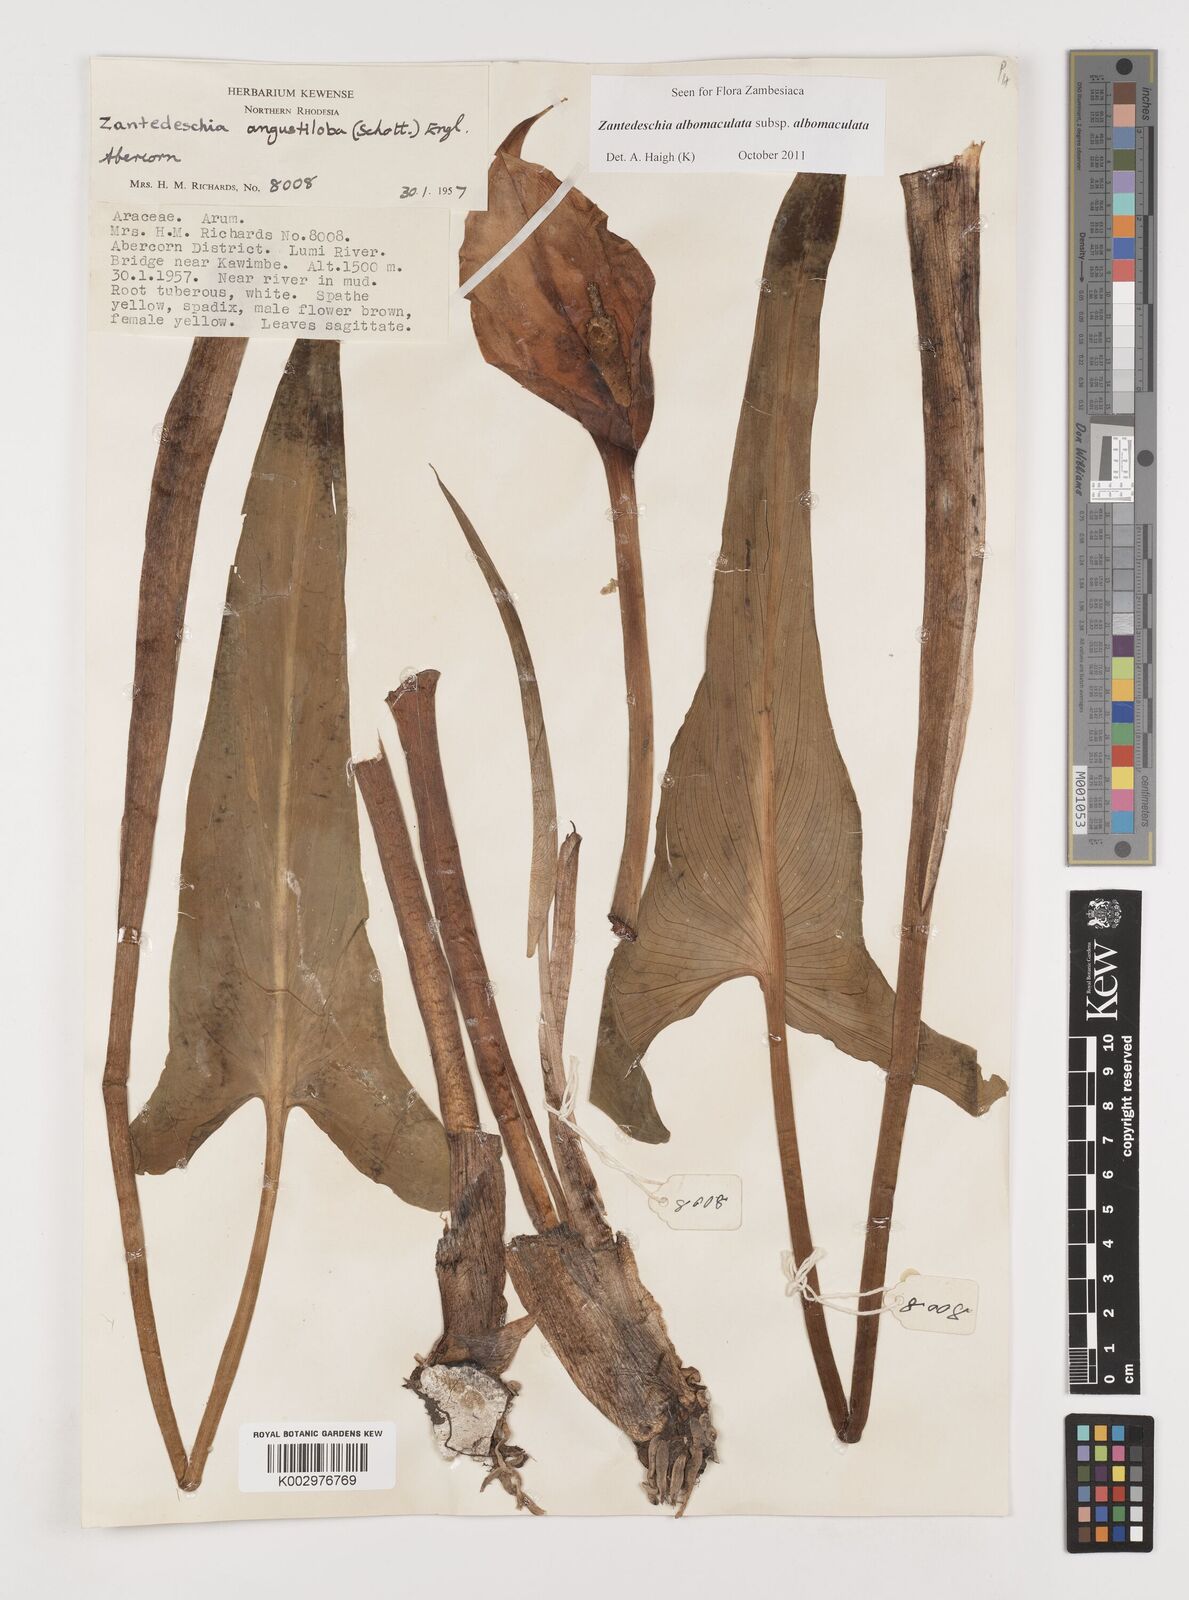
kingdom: Plantae
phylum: Tracheophyta
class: Liliopsida
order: Alismatales
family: Araceae
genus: Zantedeschia
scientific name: Zantedeschia albomaculata
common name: Spotted calla lily
